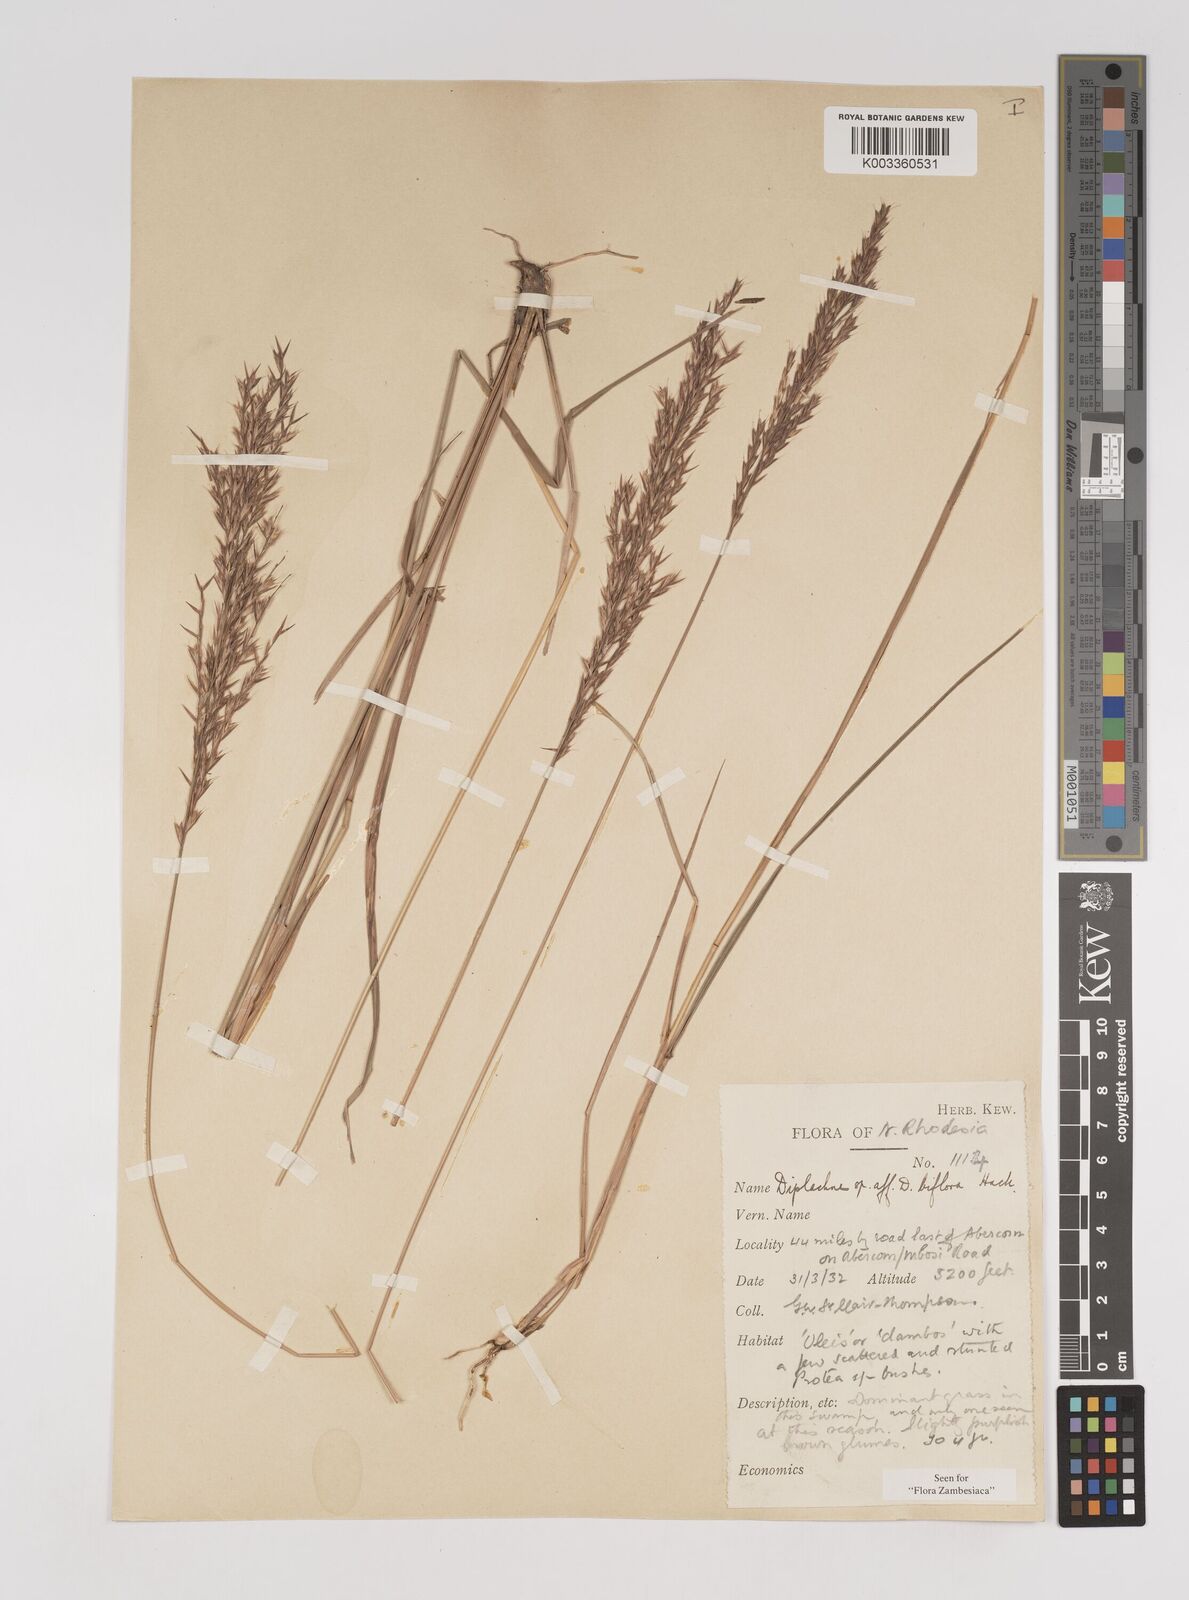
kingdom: Plantae
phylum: Tracheophyta
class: Liliopsida
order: Poales
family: Poaceae
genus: Bewsia
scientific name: Bewsia biflora
